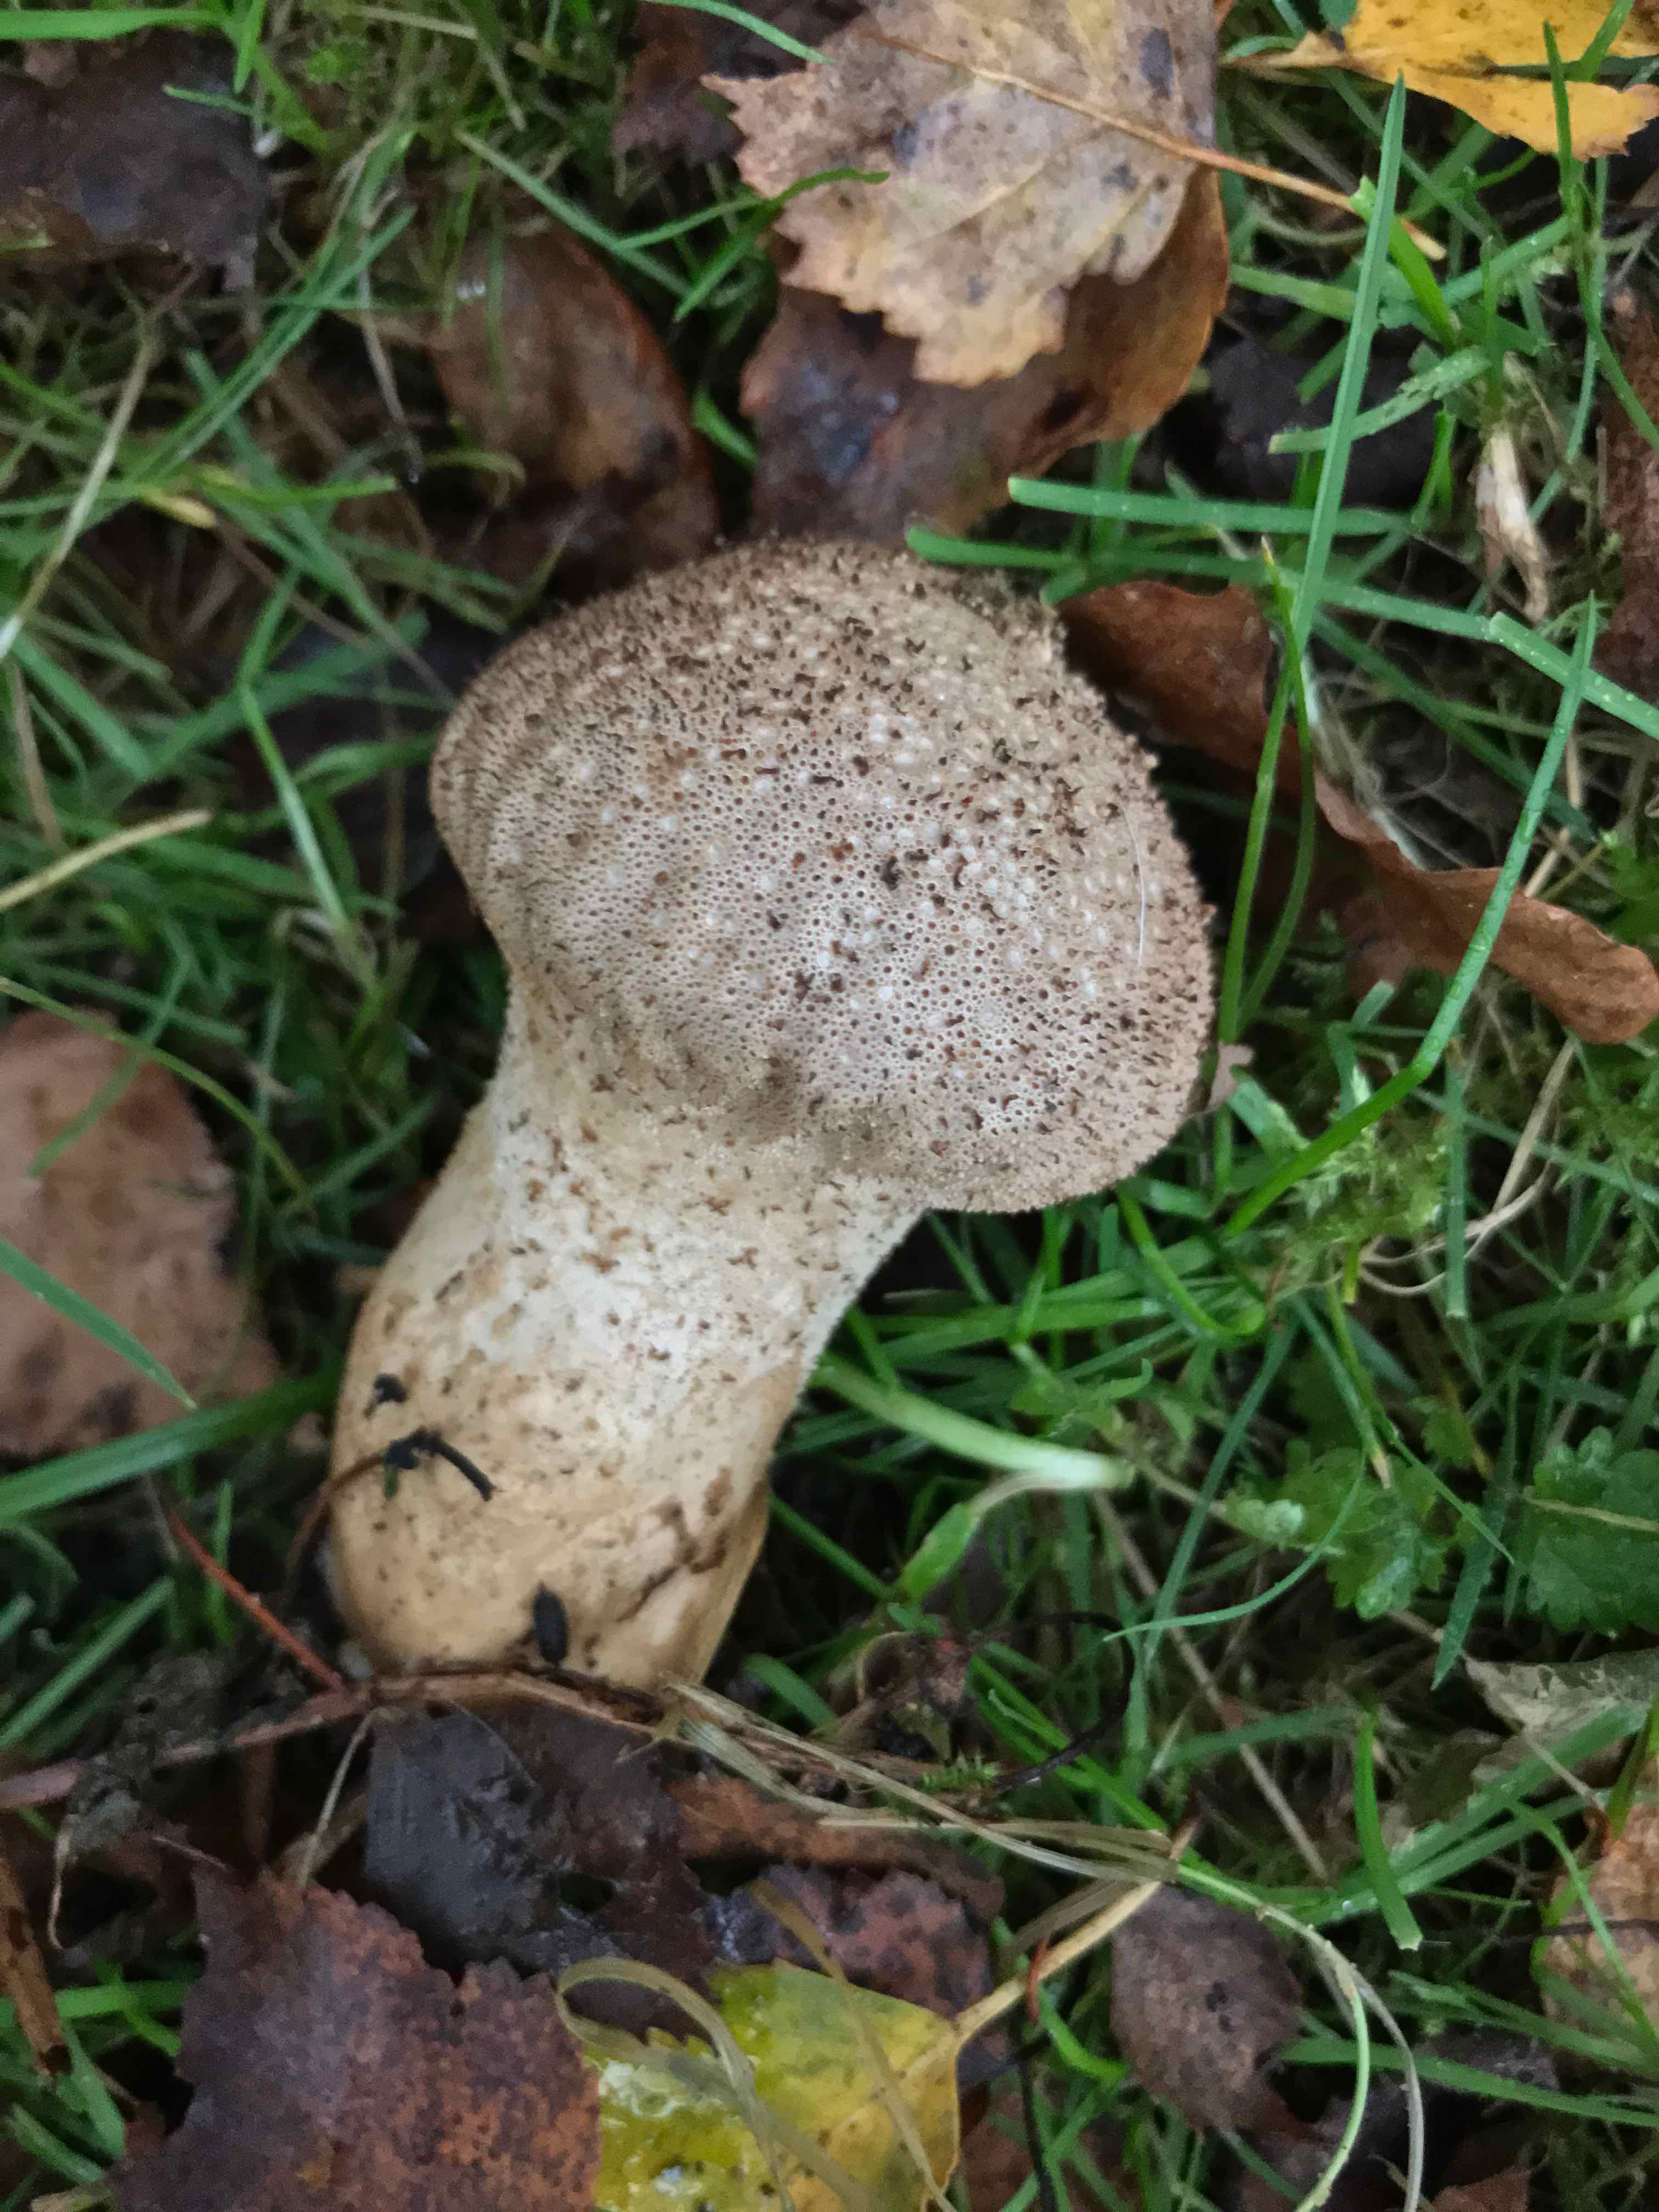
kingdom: Fungi
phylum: Basidiomycota
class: Agaricomycetes
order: Agaricales
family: Lycoperdaceae
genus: Lycoperdon
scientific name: Lycoperdon perlatum
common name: krystal-støvbold
